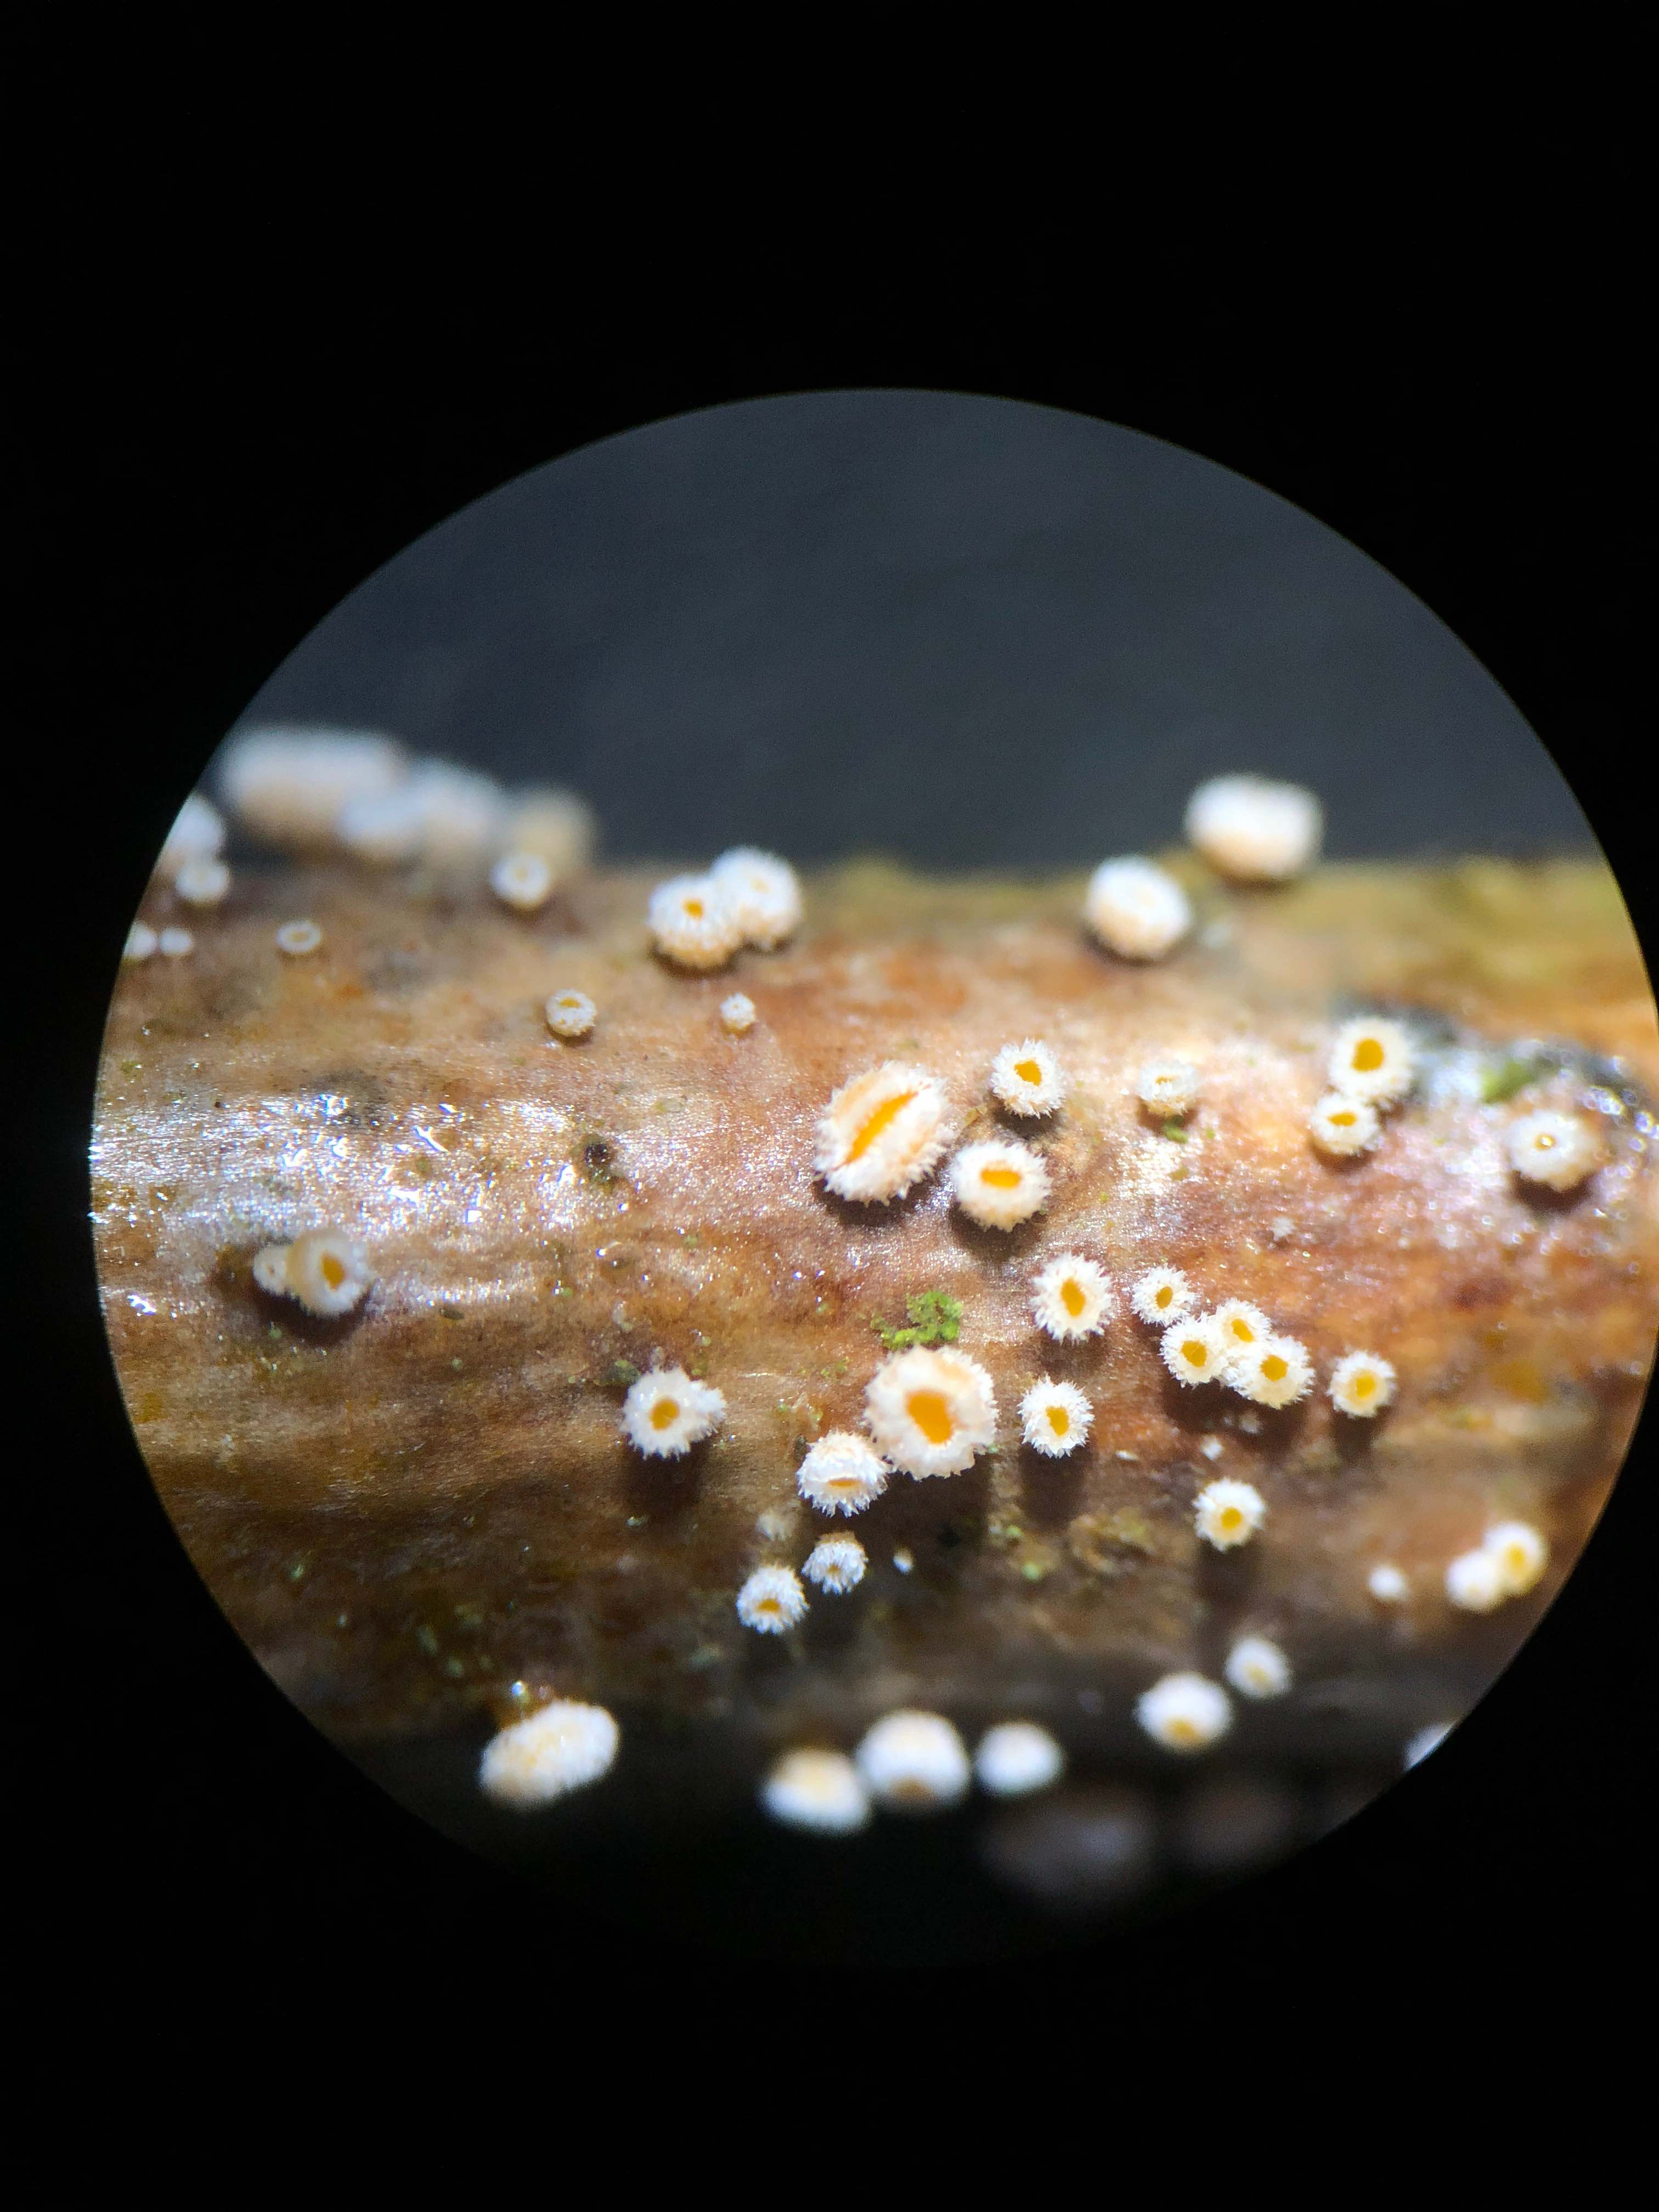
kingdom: Fungi
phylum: Ascomycota
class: Leotiomycetes
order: Helotiales
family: Lachnaceae
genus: Capitotricha
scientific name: Capitotricha bicolor
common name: prægtig frynseskive
